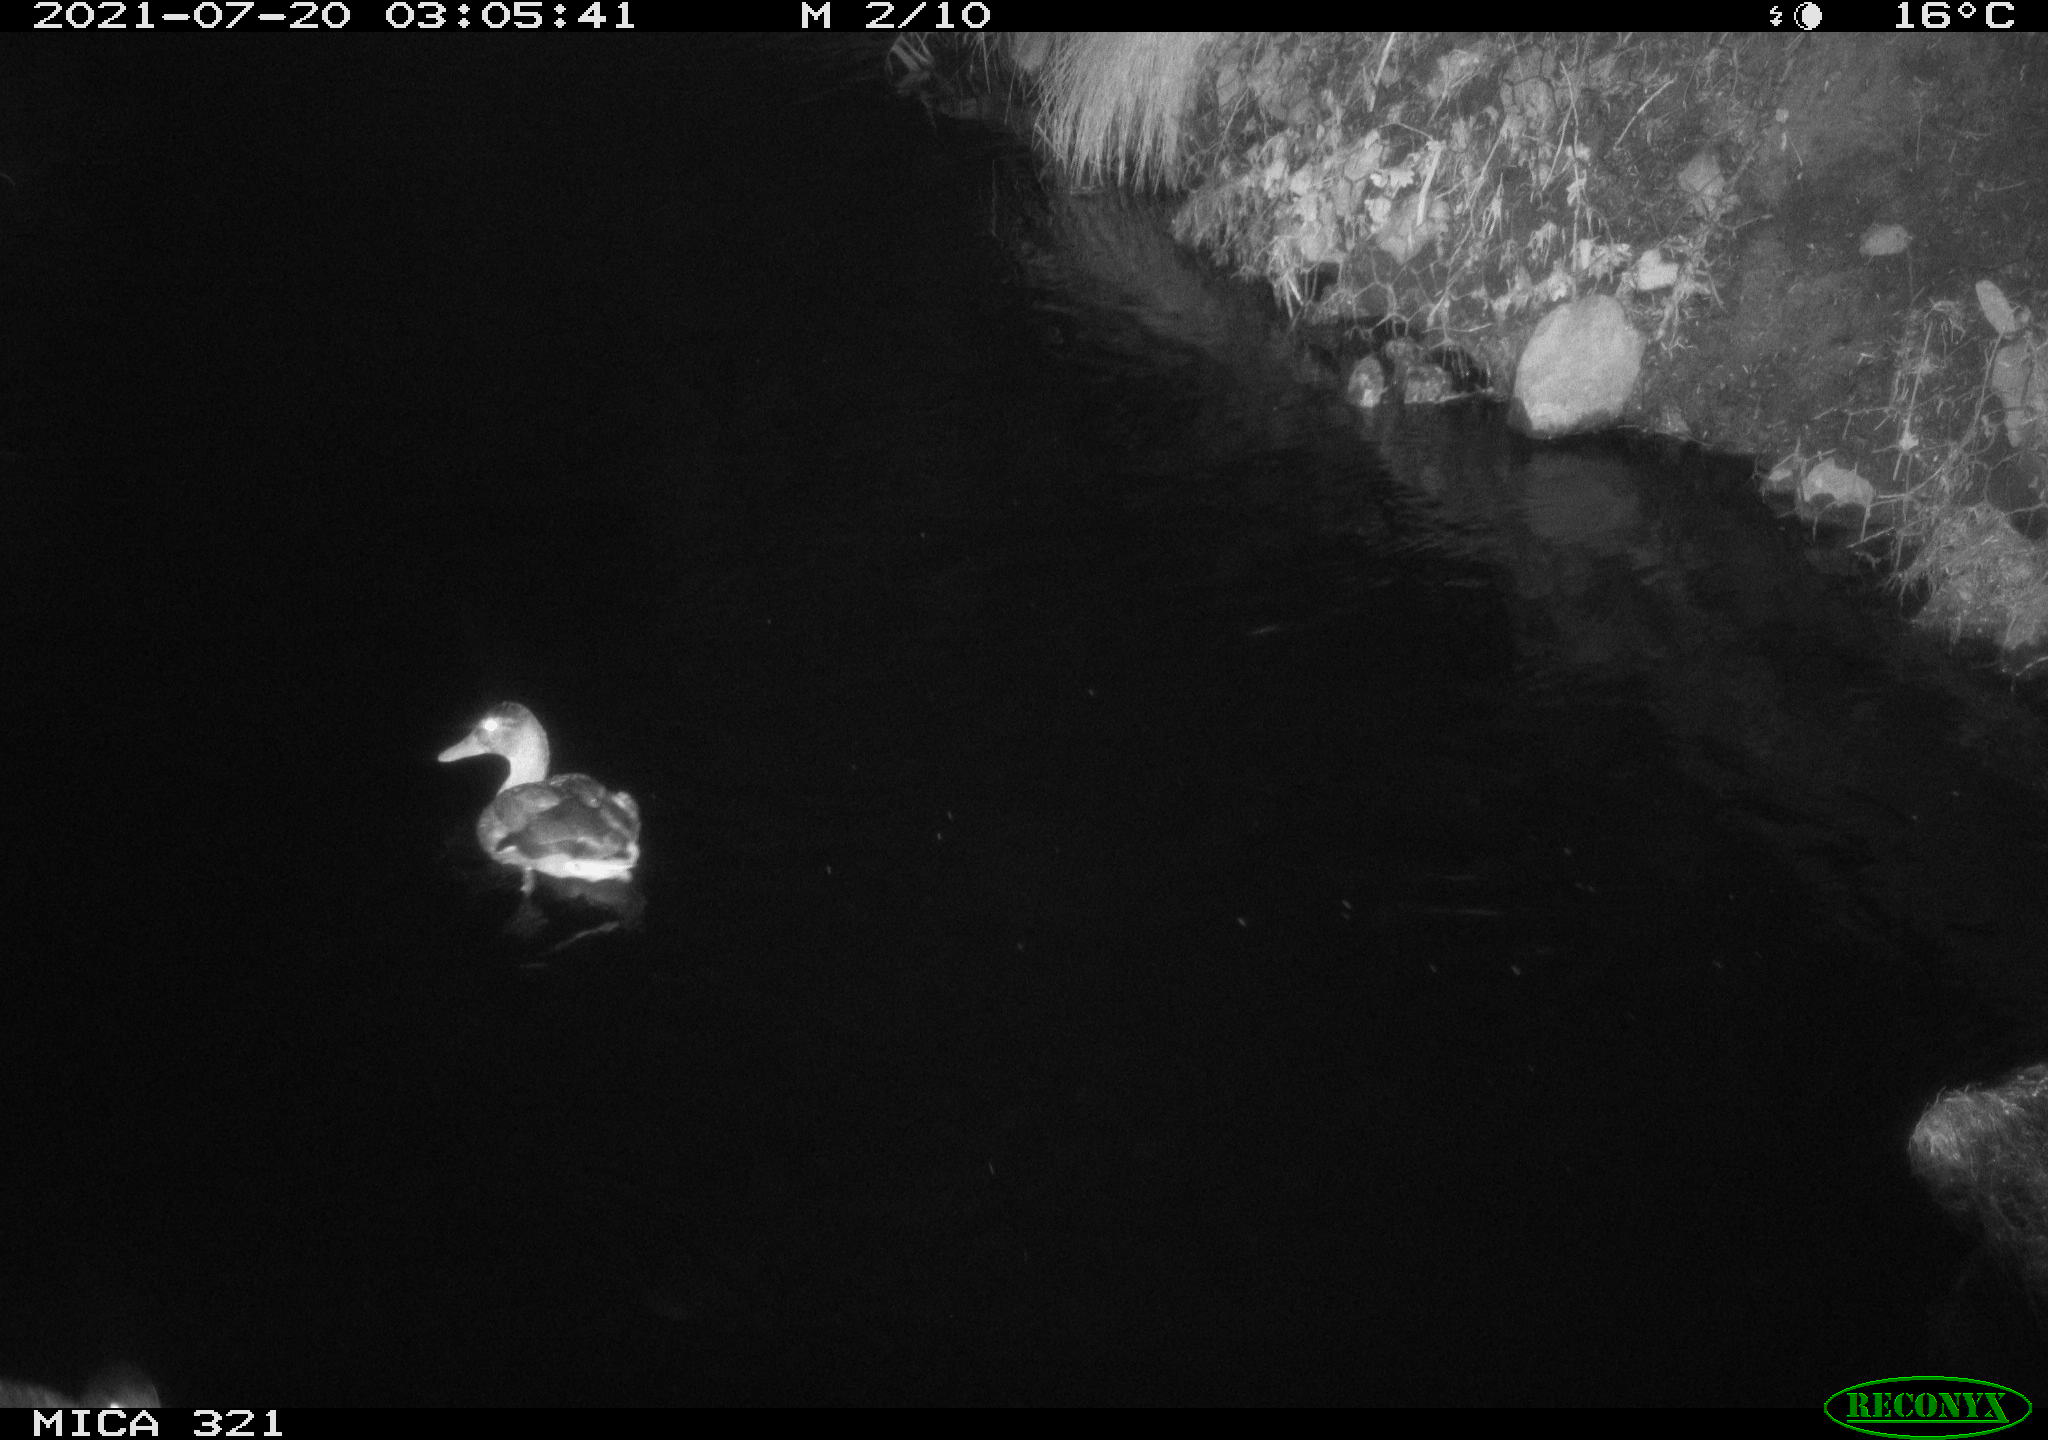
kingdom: Animalia
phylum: Chordata
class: Aves
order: Anseriformes
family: Anatidae
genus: Anas
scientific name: Anas platyrhynchos
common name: Mallard
